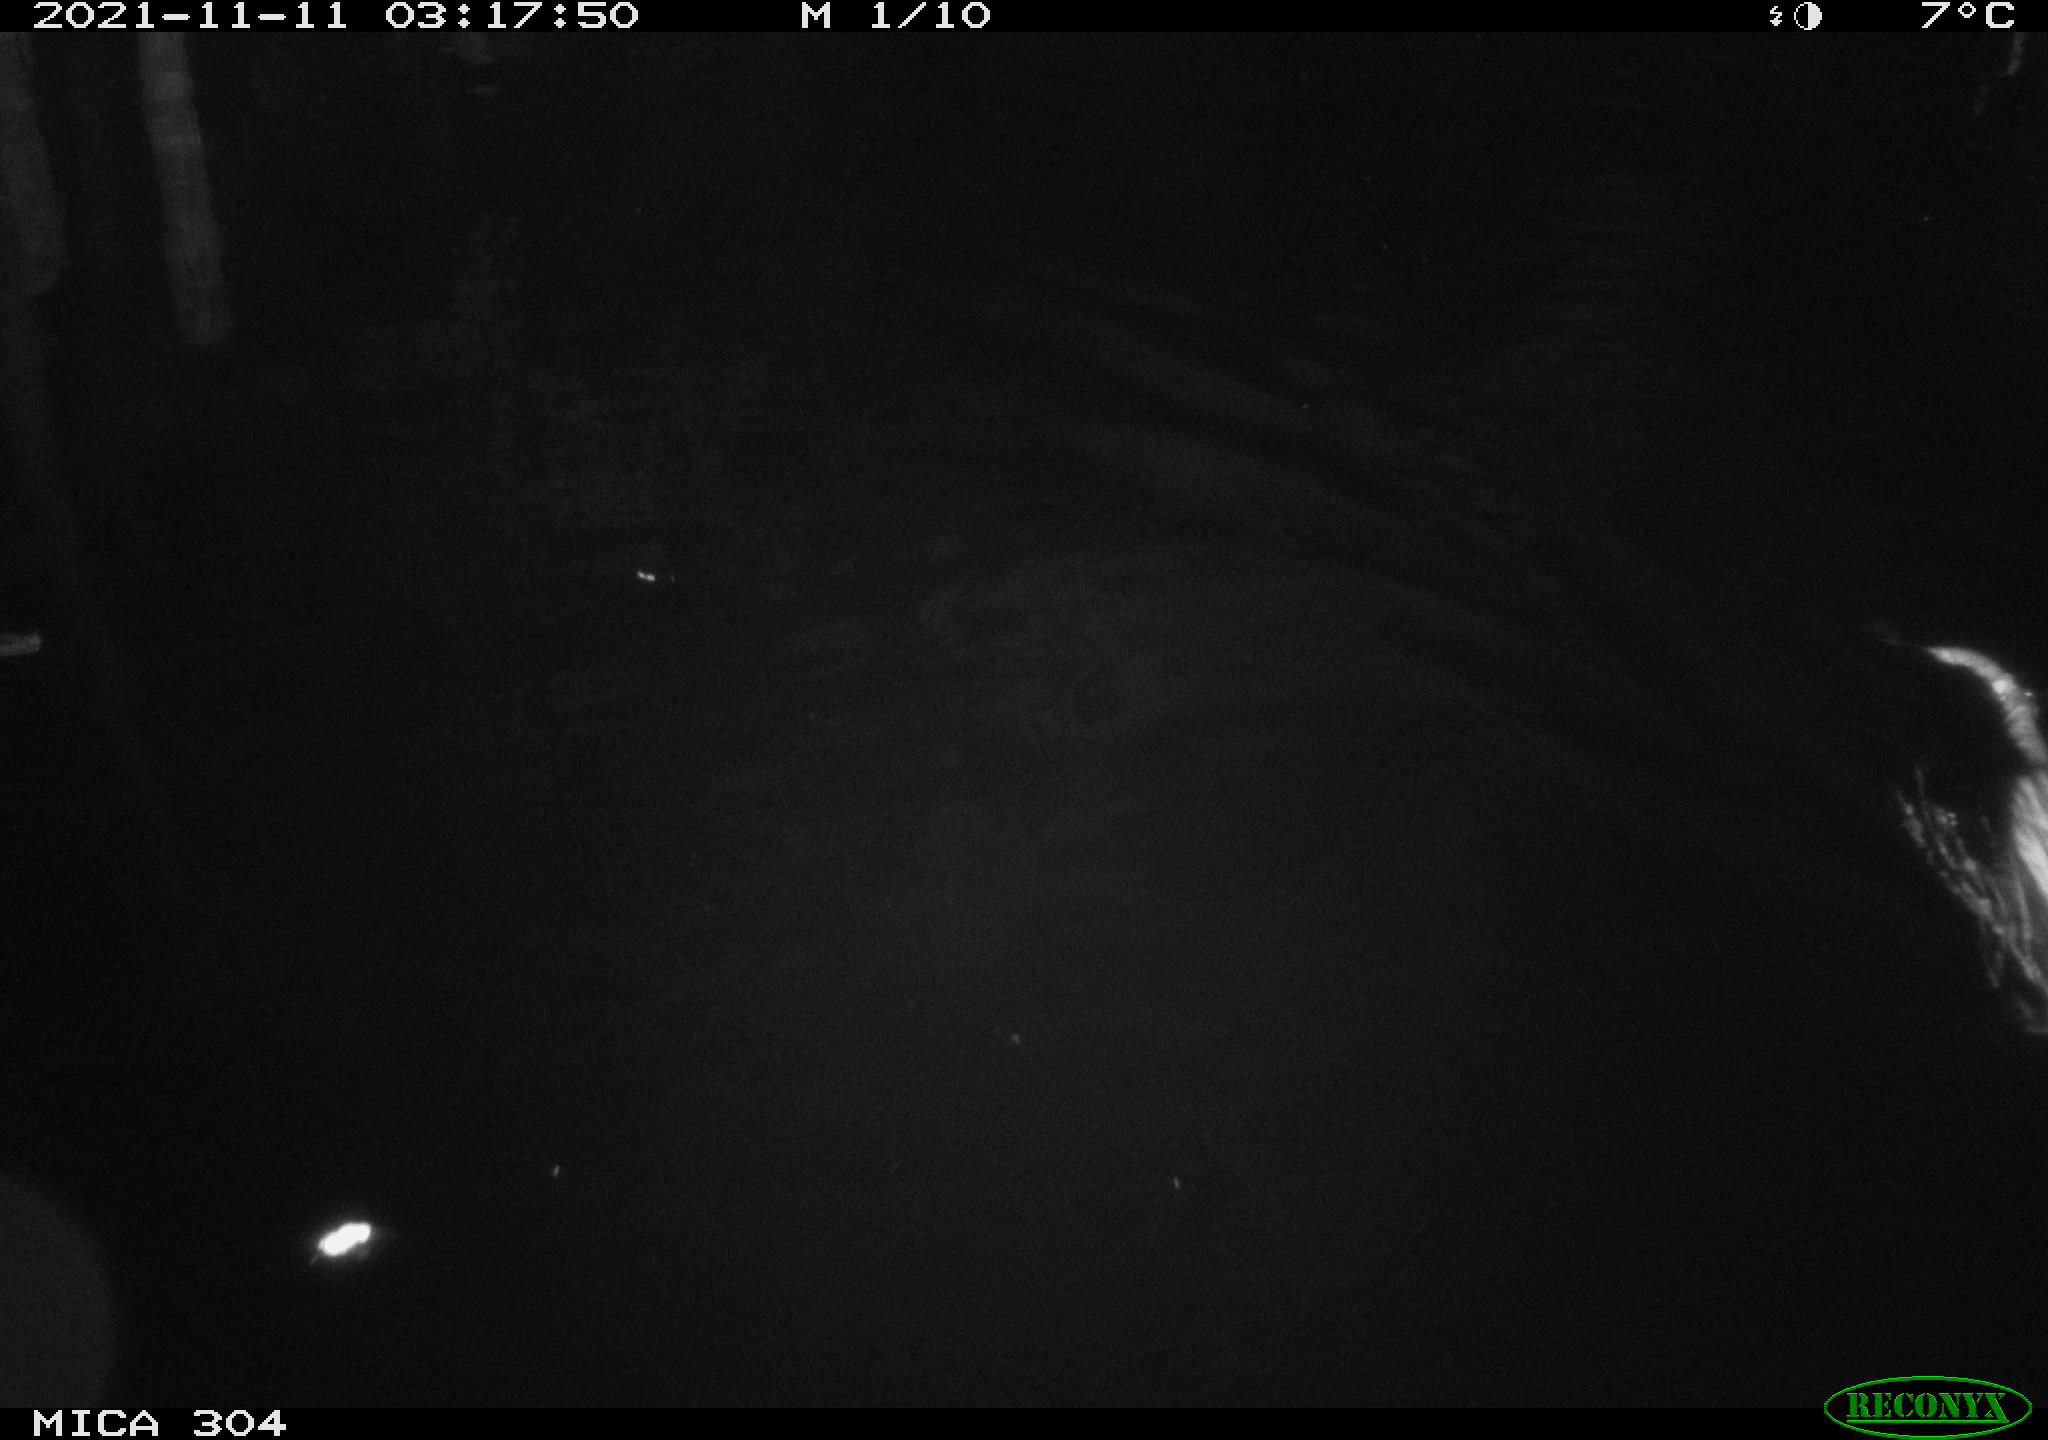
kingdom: Animalia
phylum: Chordata
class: Mammalia
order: Rodentia
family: Muridae
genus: Rattus
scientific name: Rattus norvegicus
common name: Brown rat
